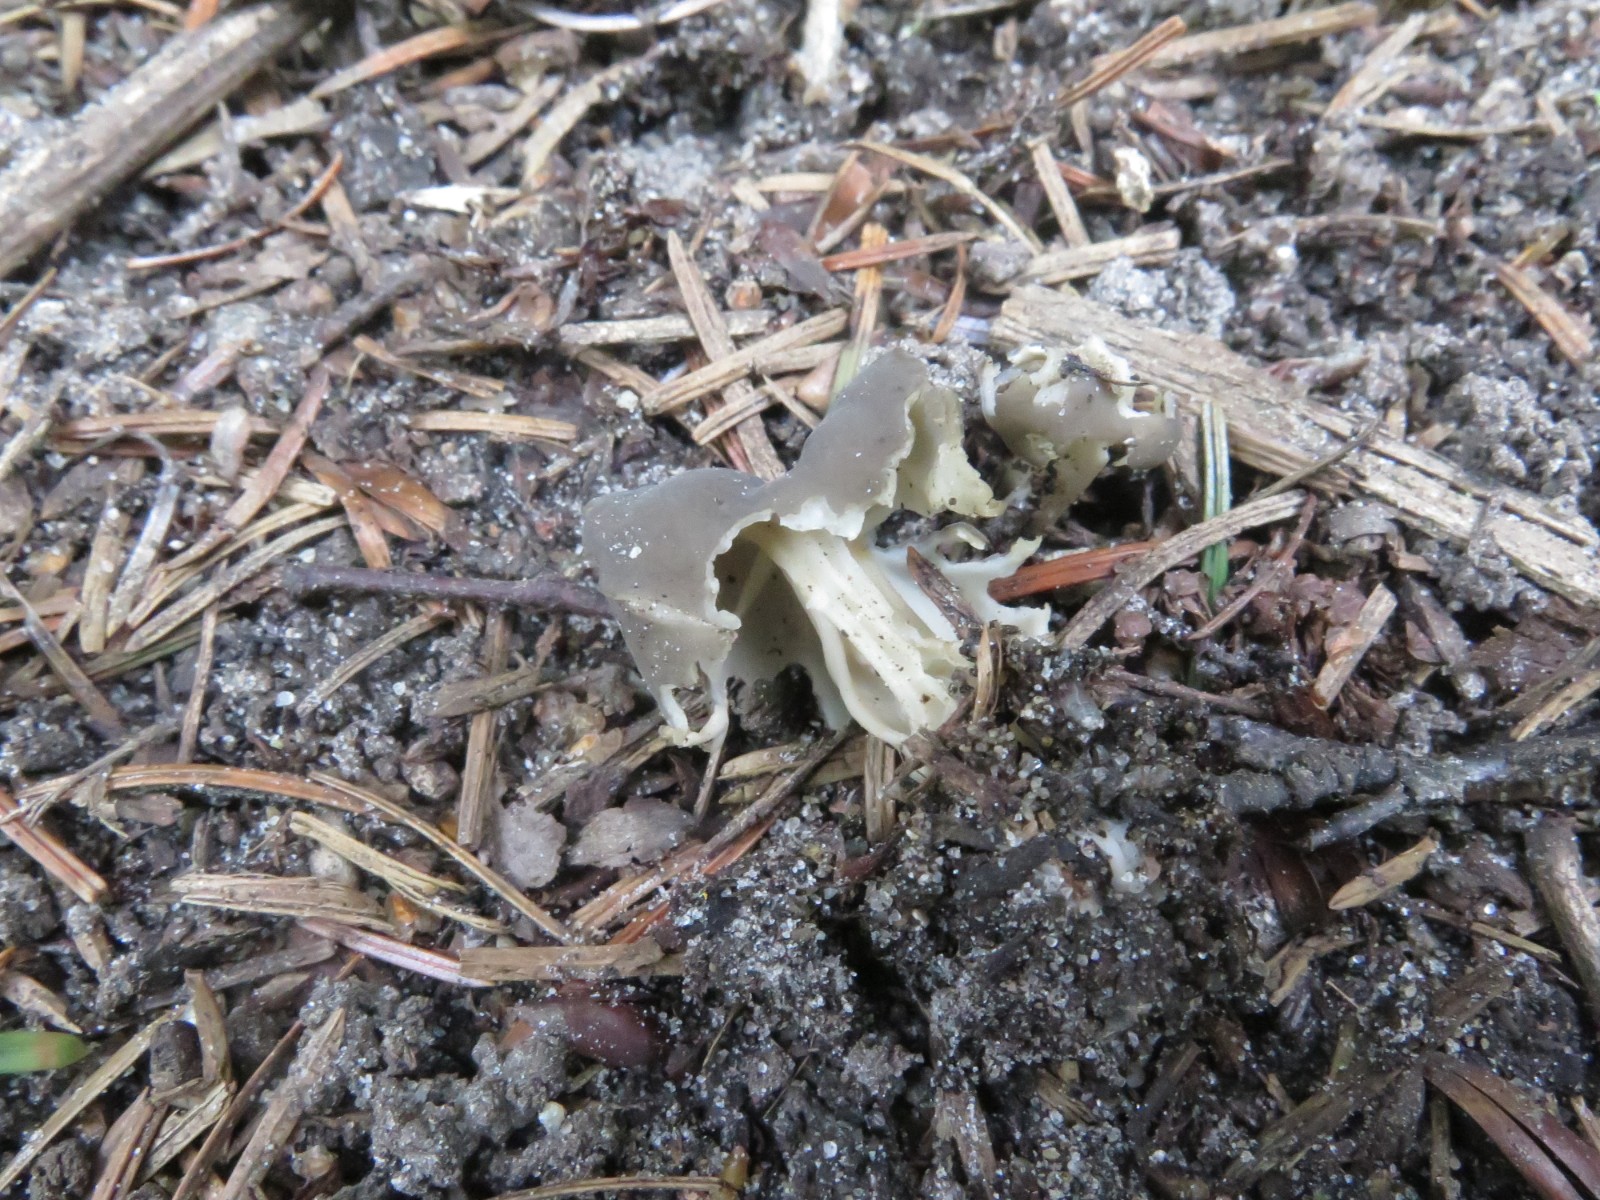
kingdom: Fungi
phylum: Ascomycota
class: Pezizomycetes
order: Pezizales
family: Helvellaceae
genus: Helvella
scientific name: Helvella lacunosa
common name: grubet foldhat
